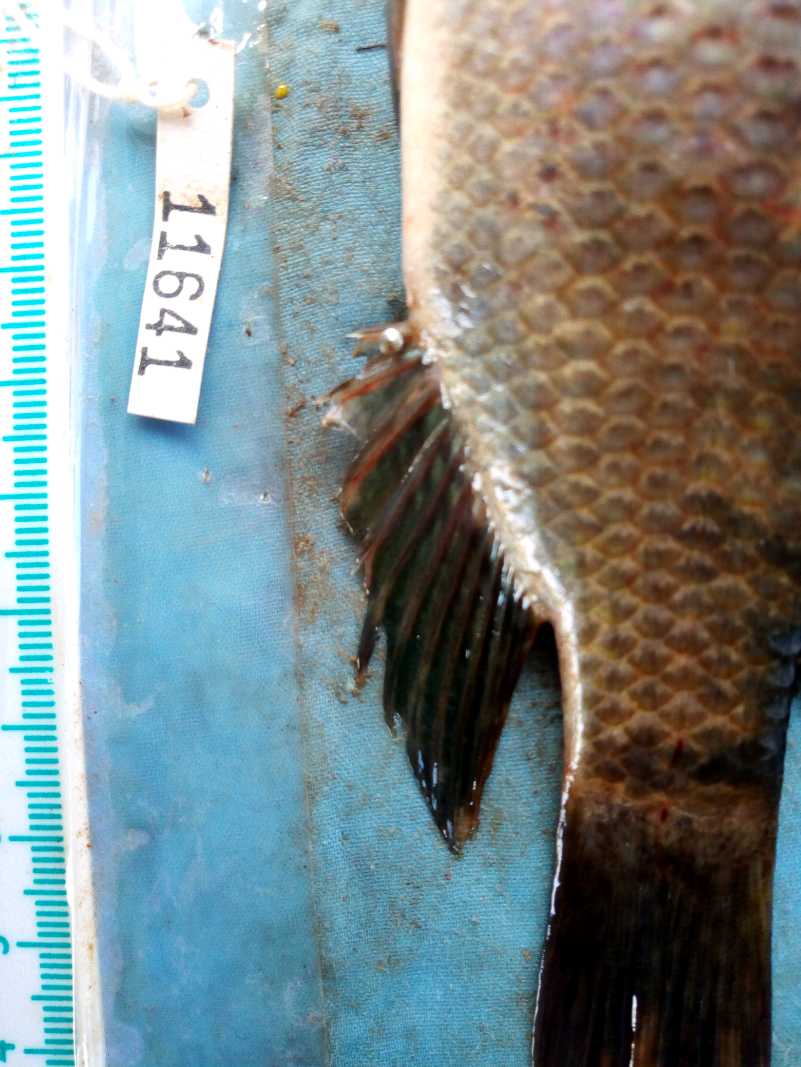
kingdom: Animalia
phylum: Chordata
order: Perciformes
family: Cichlidae
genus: Oreochromis
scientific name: Oreochromis spilurus
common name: Sabaki tilapia
